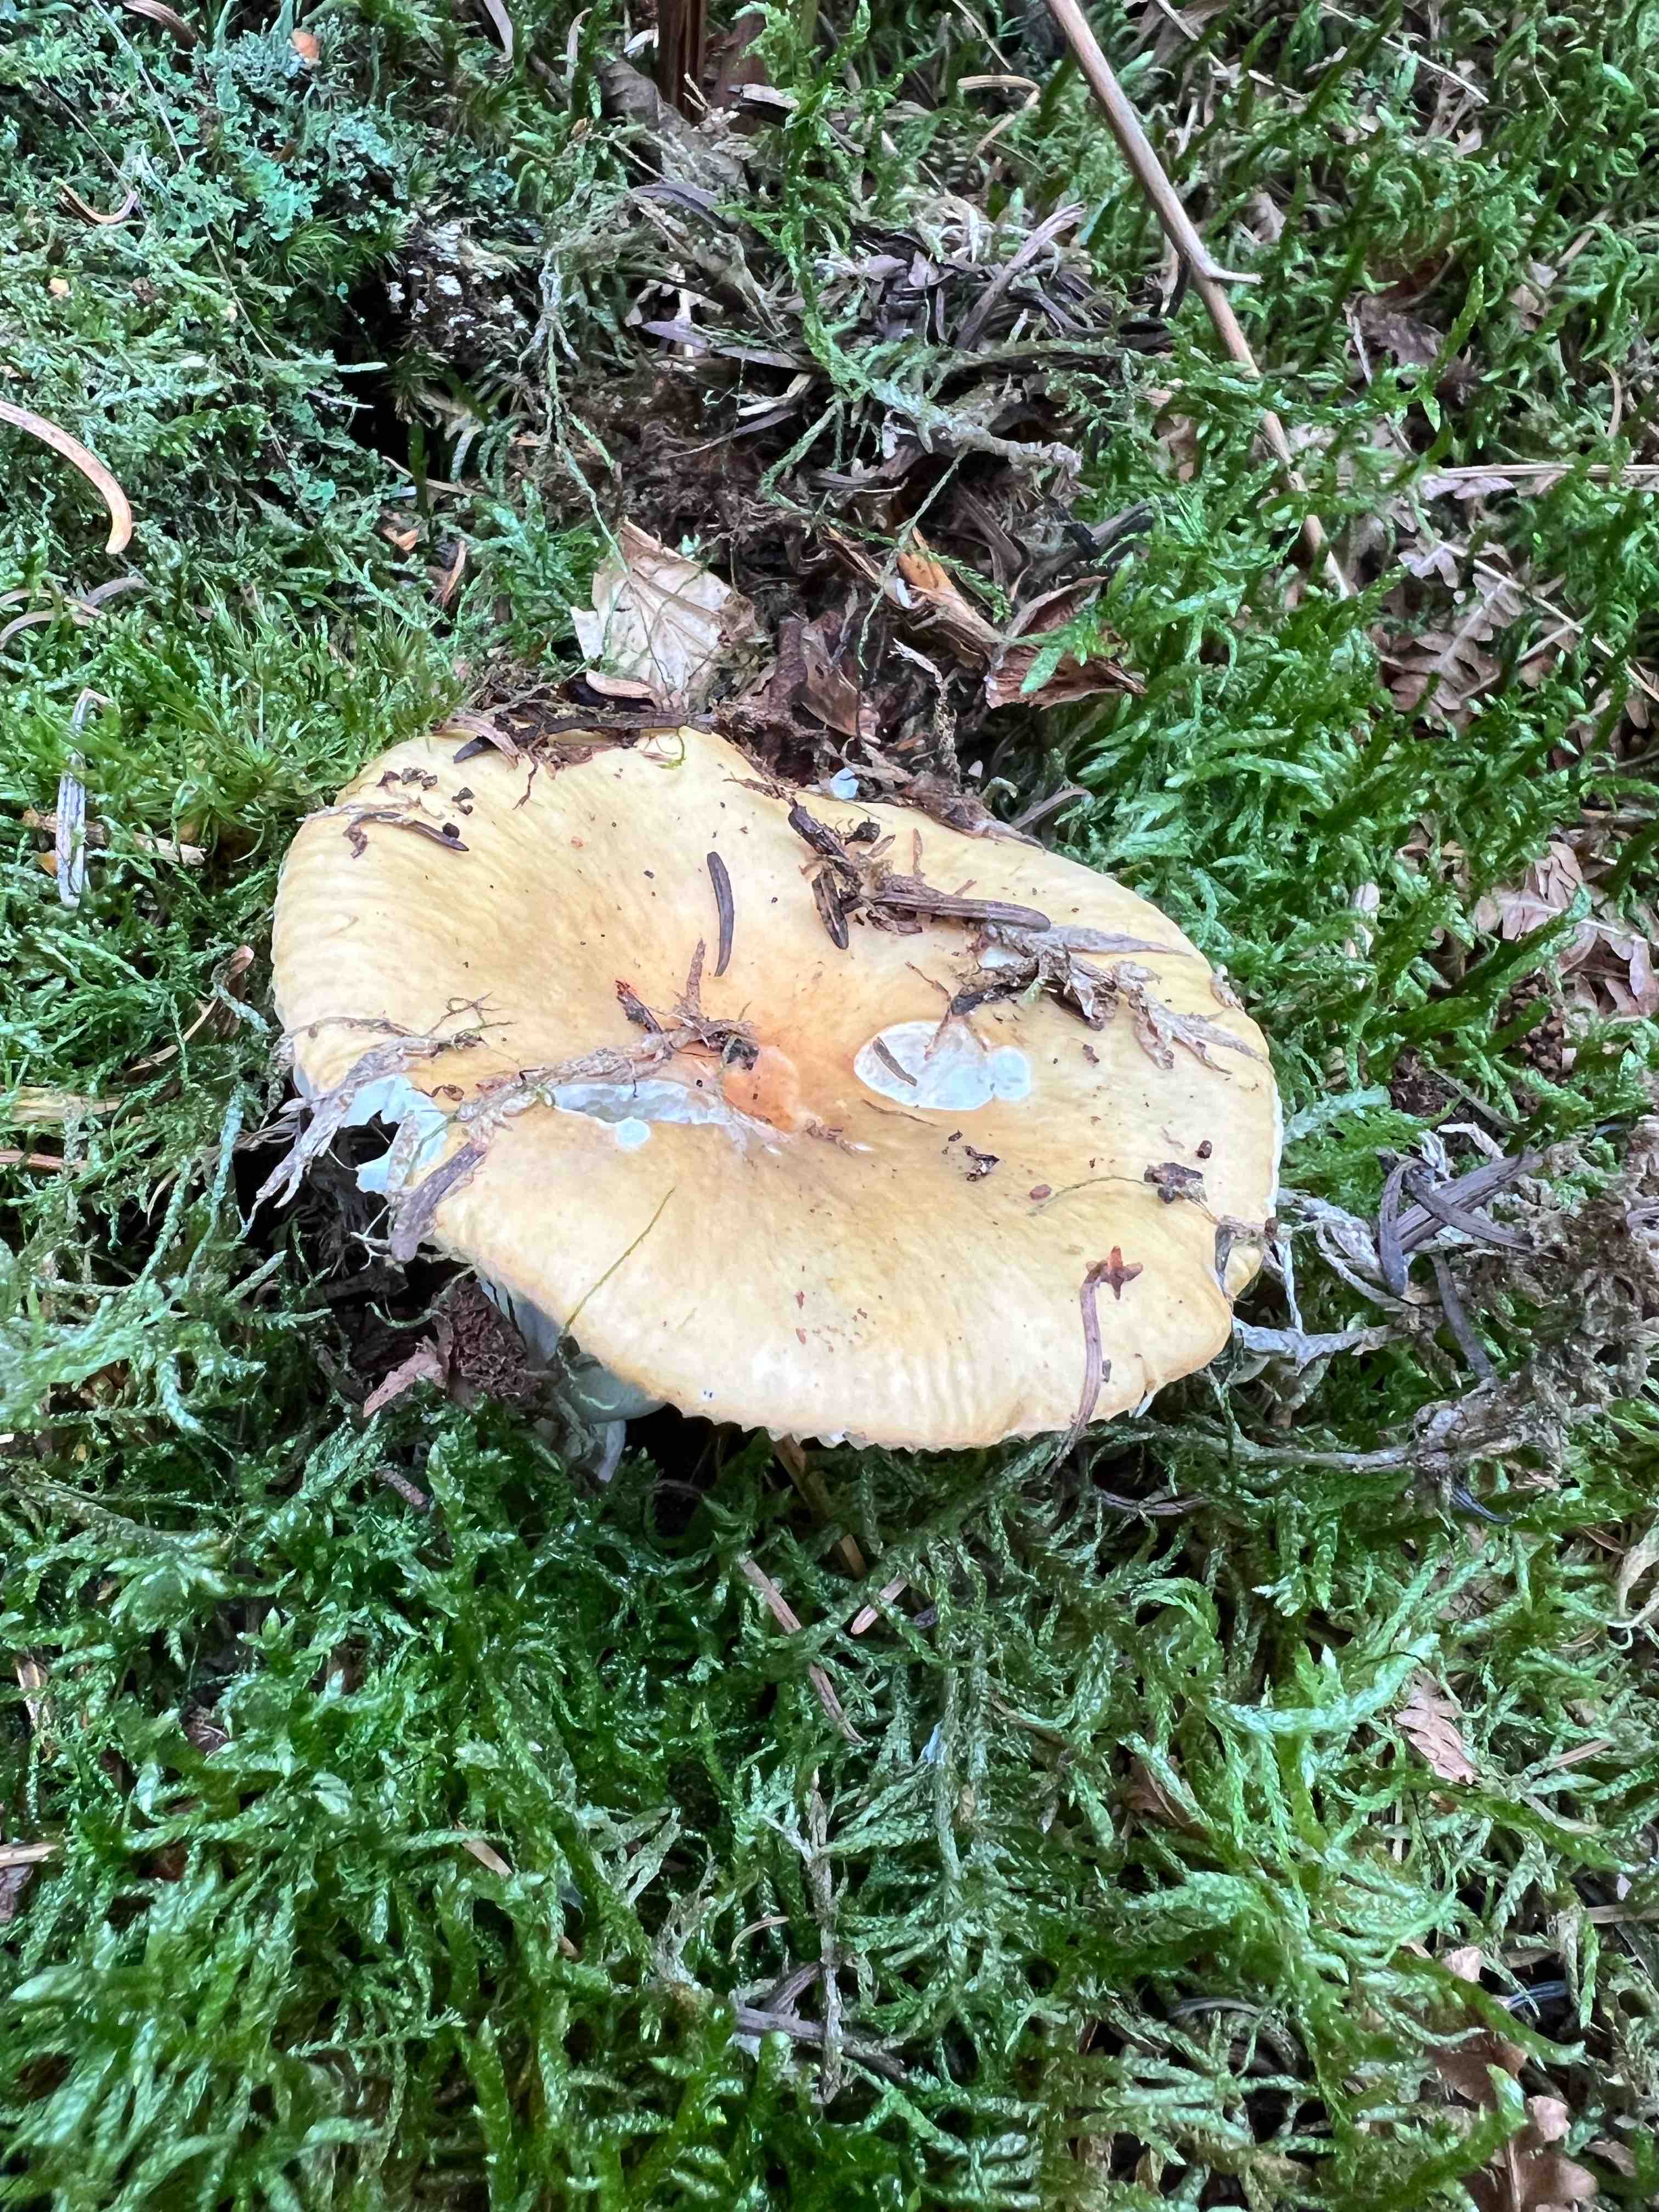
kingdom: Fungi
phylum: Basidiomycota
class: Agaricomycetes
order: Russulales
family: Russulaceae
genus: Russula
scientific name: Russula ochroleuca
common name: okkergul skørhat
